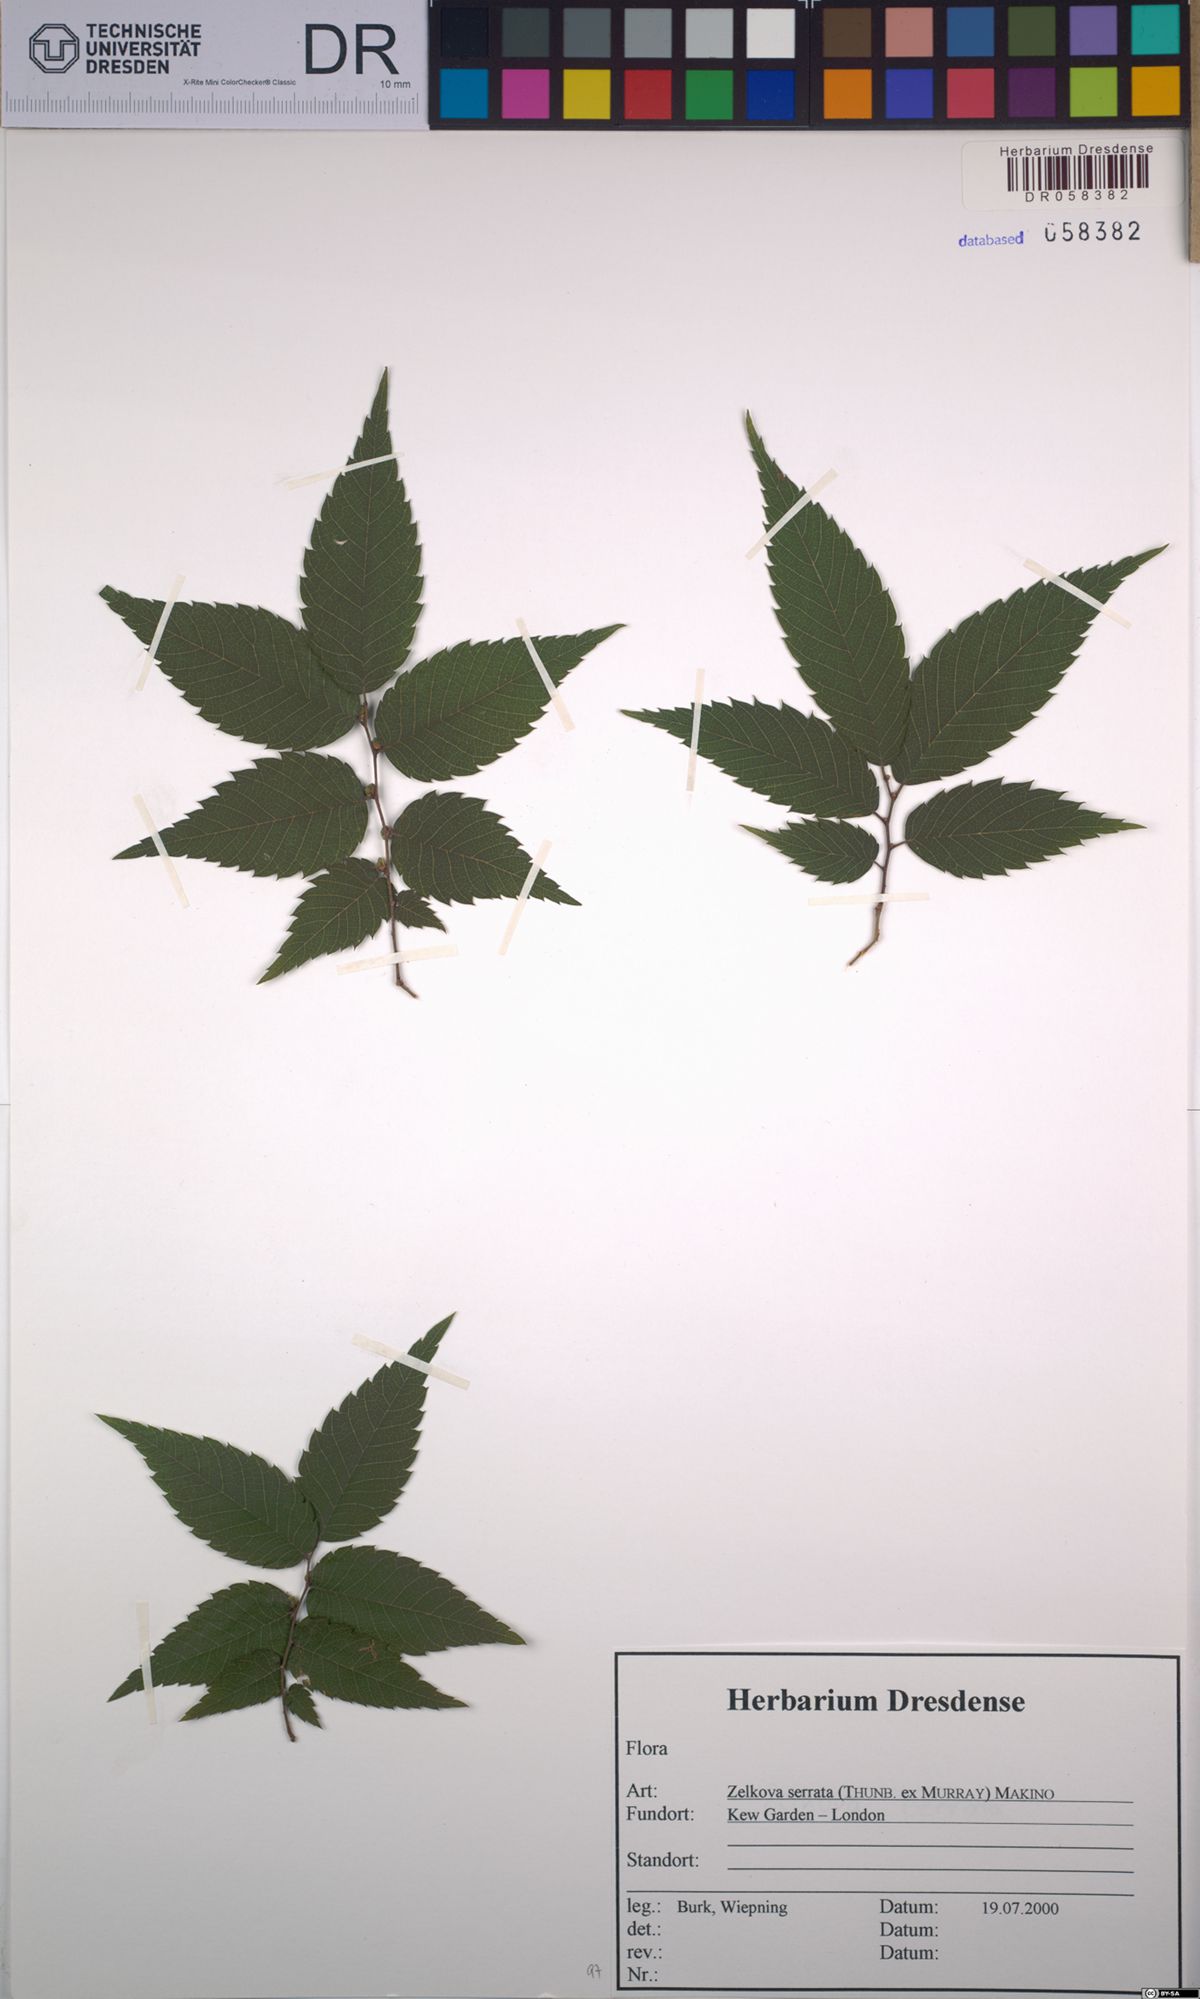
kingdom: Plantae
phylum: Tracheophyta
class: Magnoliopsida
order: Rosales
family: Ulmaceae
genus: Zelkova
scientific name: Zelkova serrata
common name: Japanese zelkova
